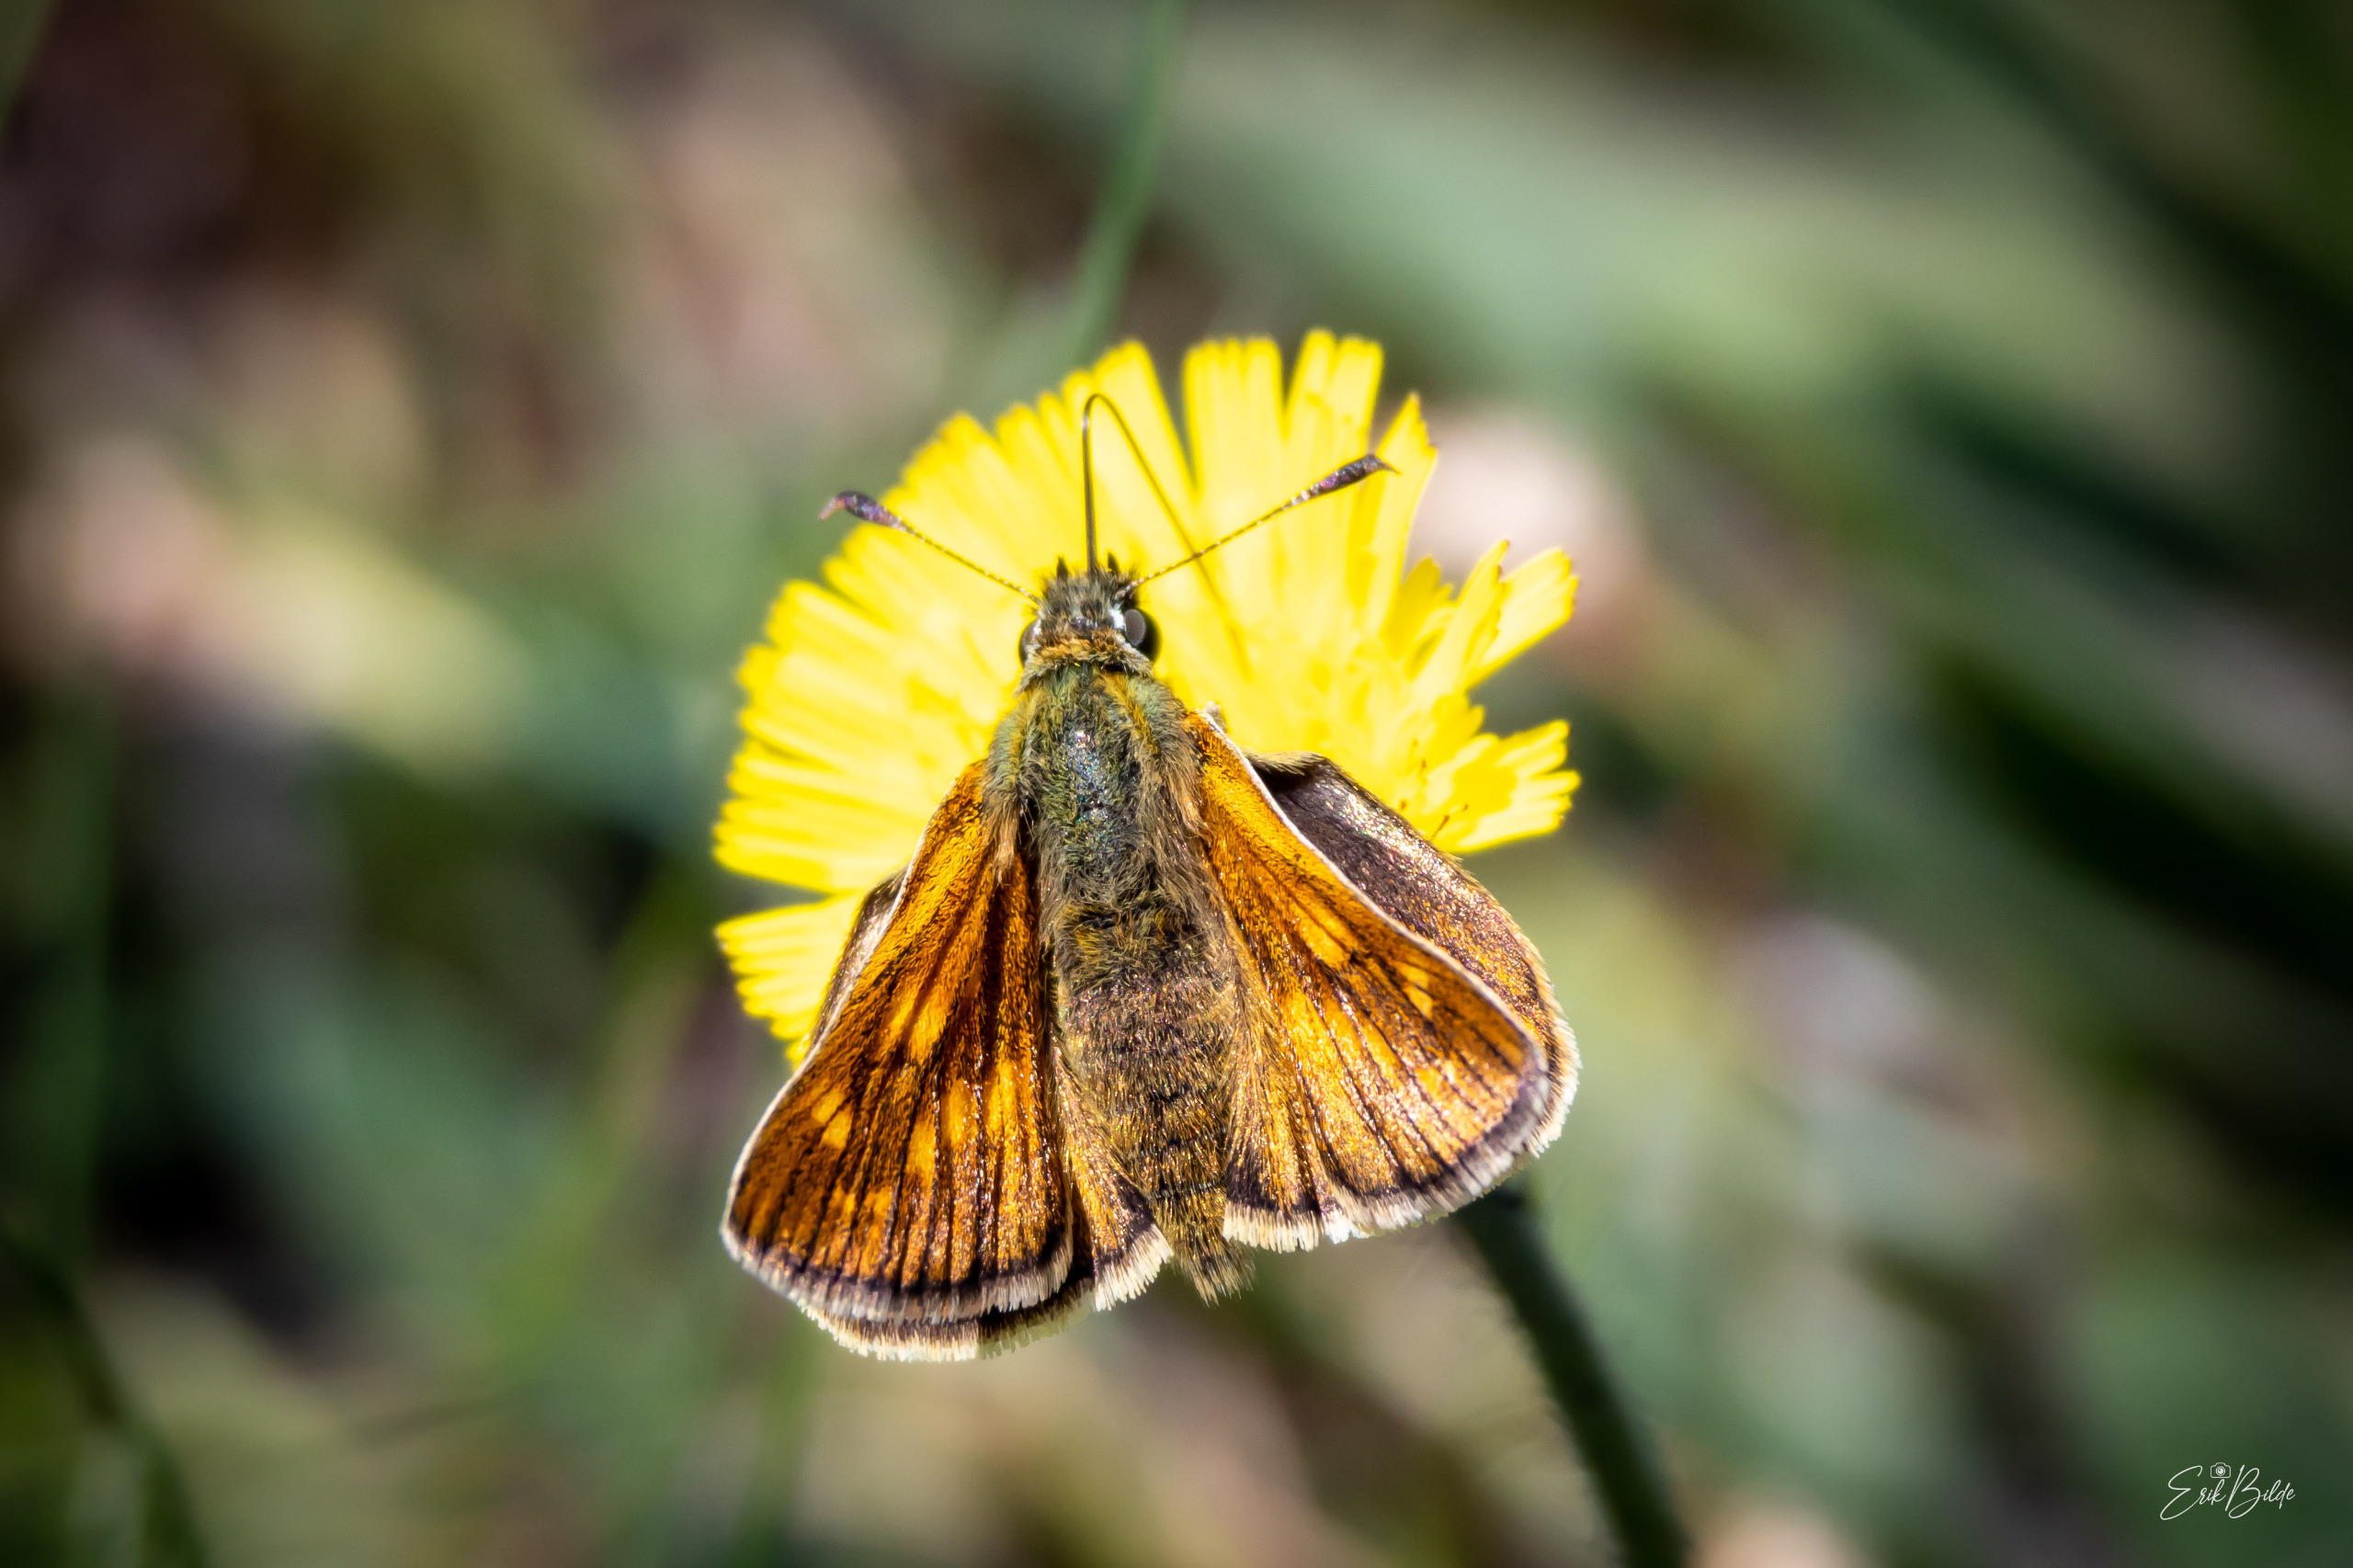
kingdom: Animalia
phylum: Arthropoda
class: Insecta
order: Lepidoptera
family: Hesperiidae
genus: Ochlodes
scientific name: Ochlodes venata
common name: Stor bredpande
